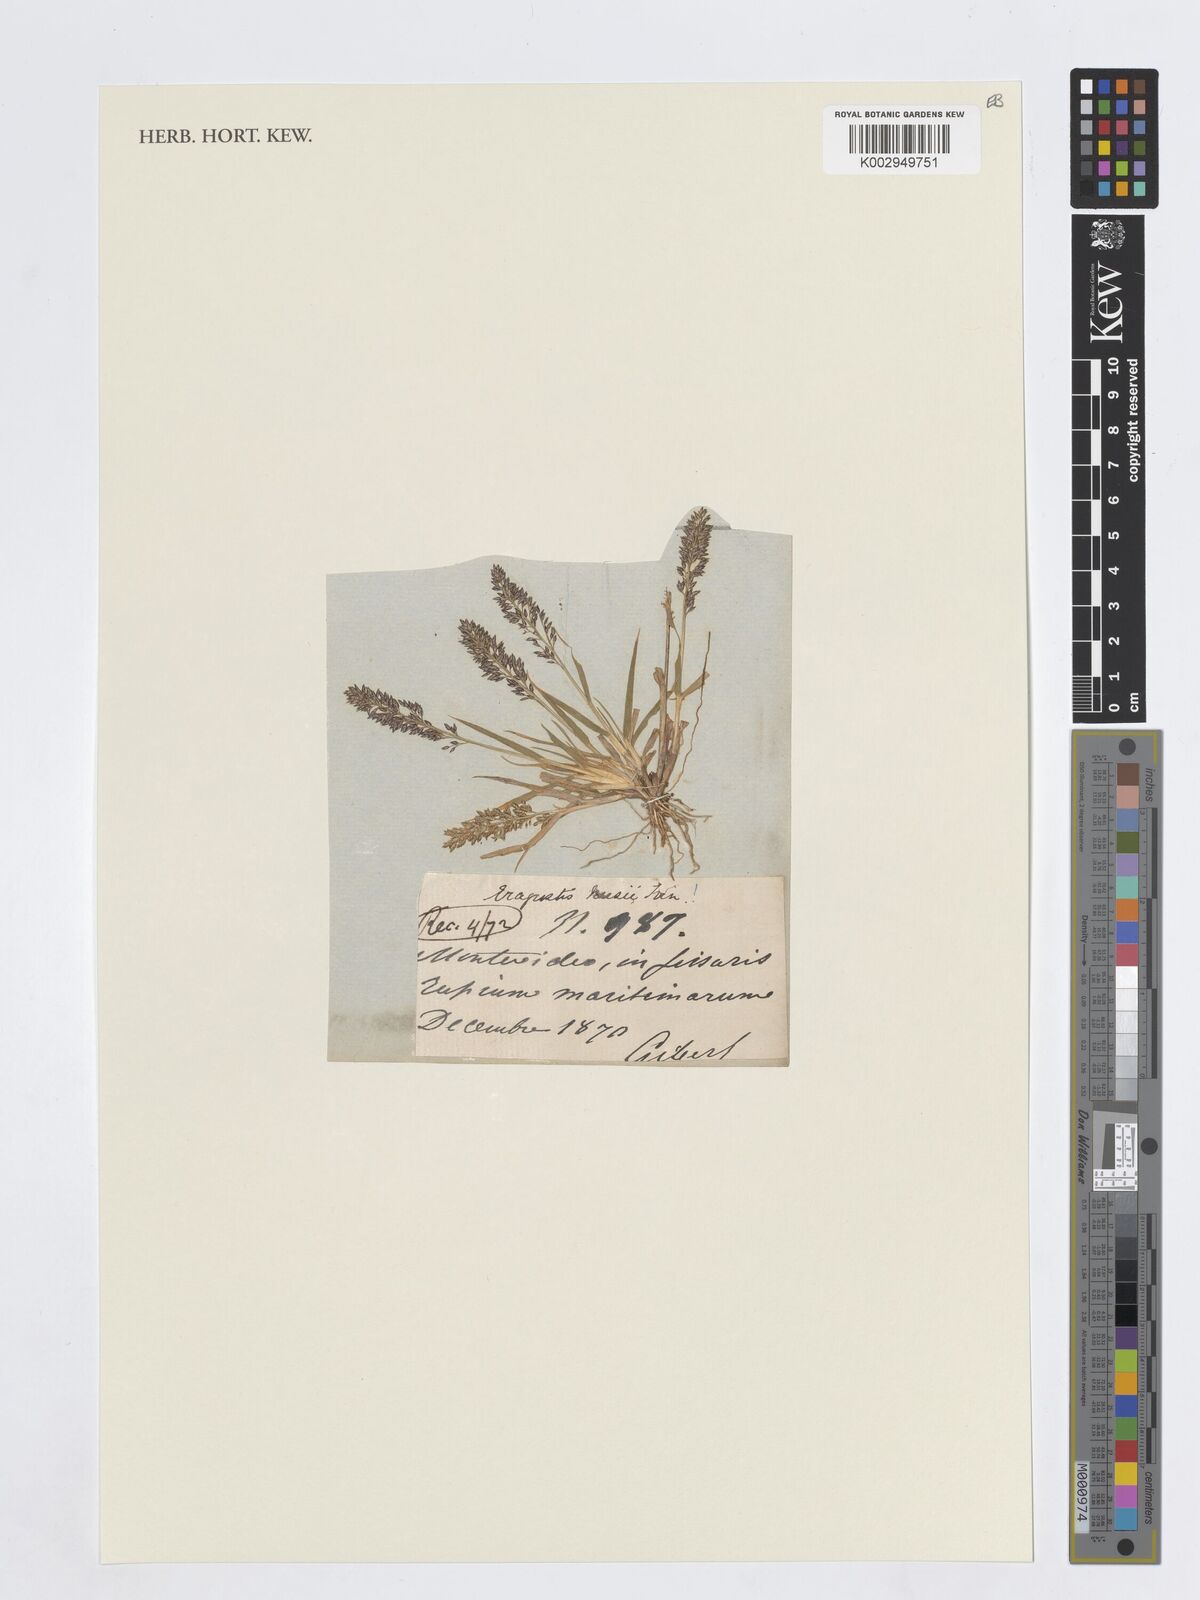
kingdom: Plantae
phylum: Tracheophyta
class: Liliopsida
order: Poales
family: Poaceae
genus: Eragrostis
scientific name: Eragrostis neesii
